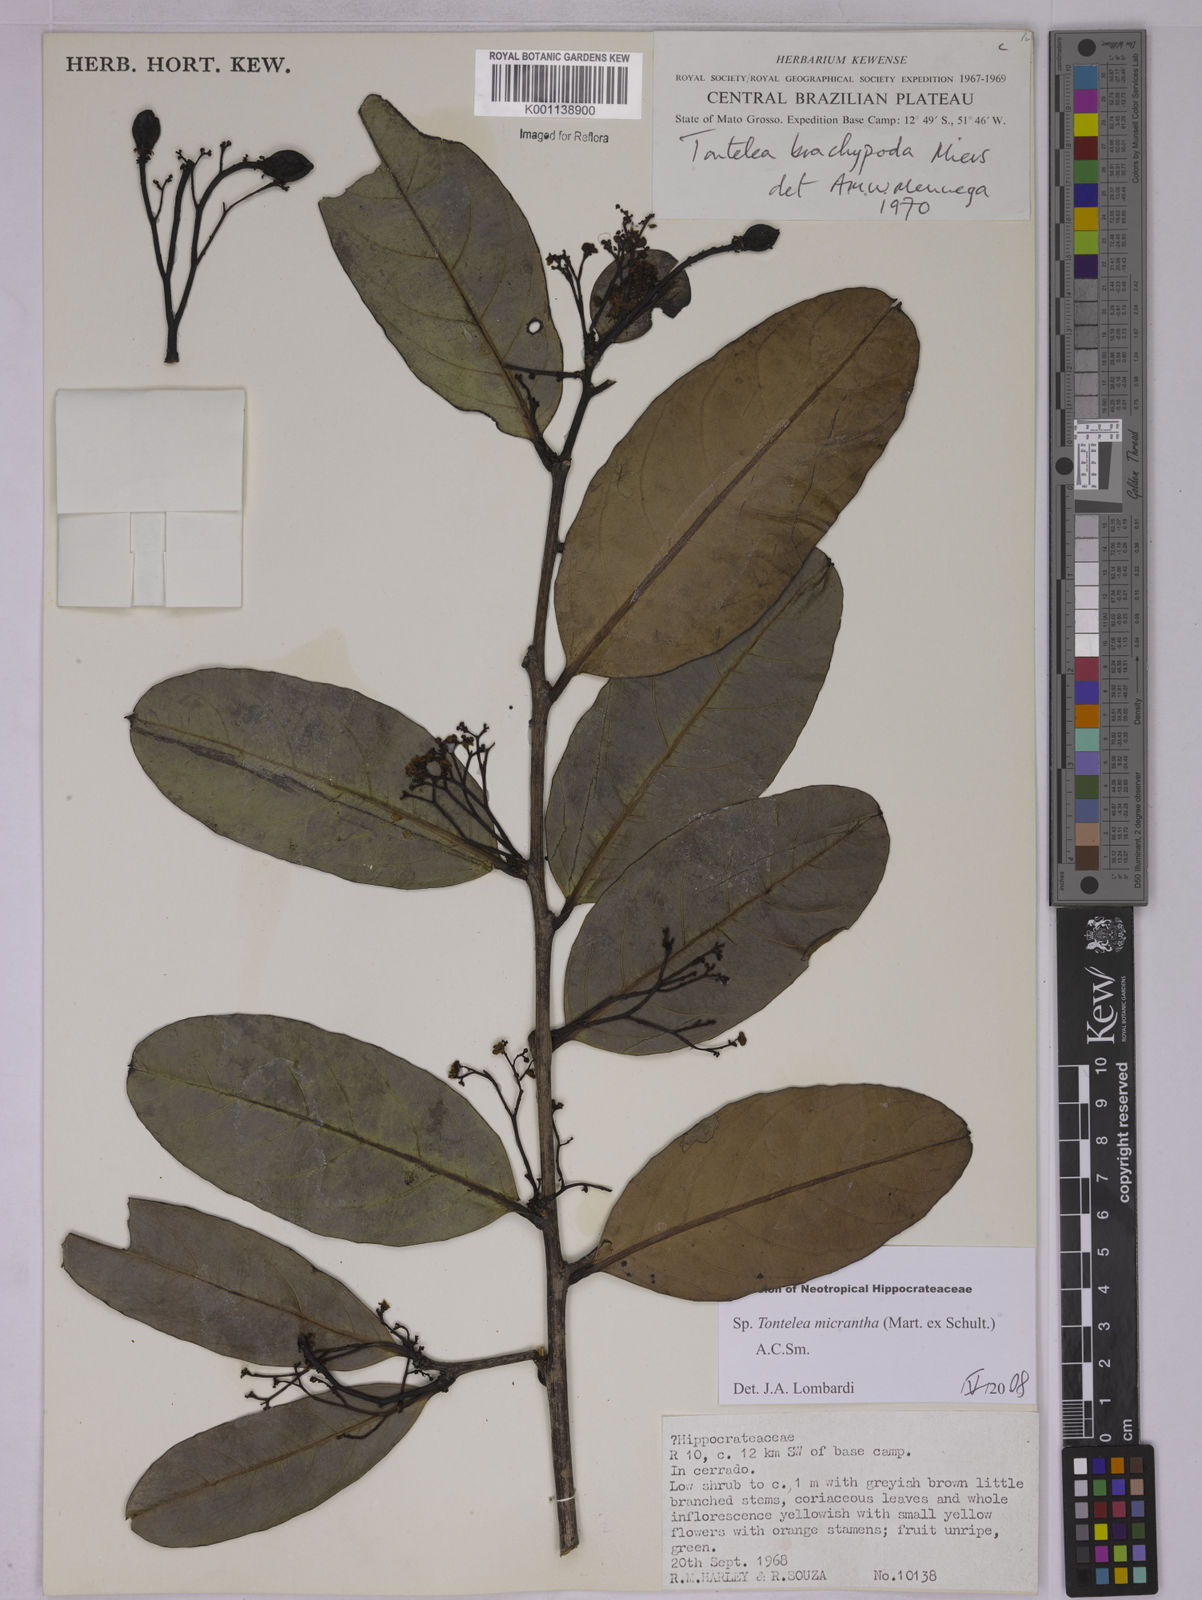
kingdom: Plantae
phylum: Tracheophyta
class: Magnoliopsida
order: Celastrales
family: Celastraceae
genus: Tontelea
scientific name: Tontelea micrantha
